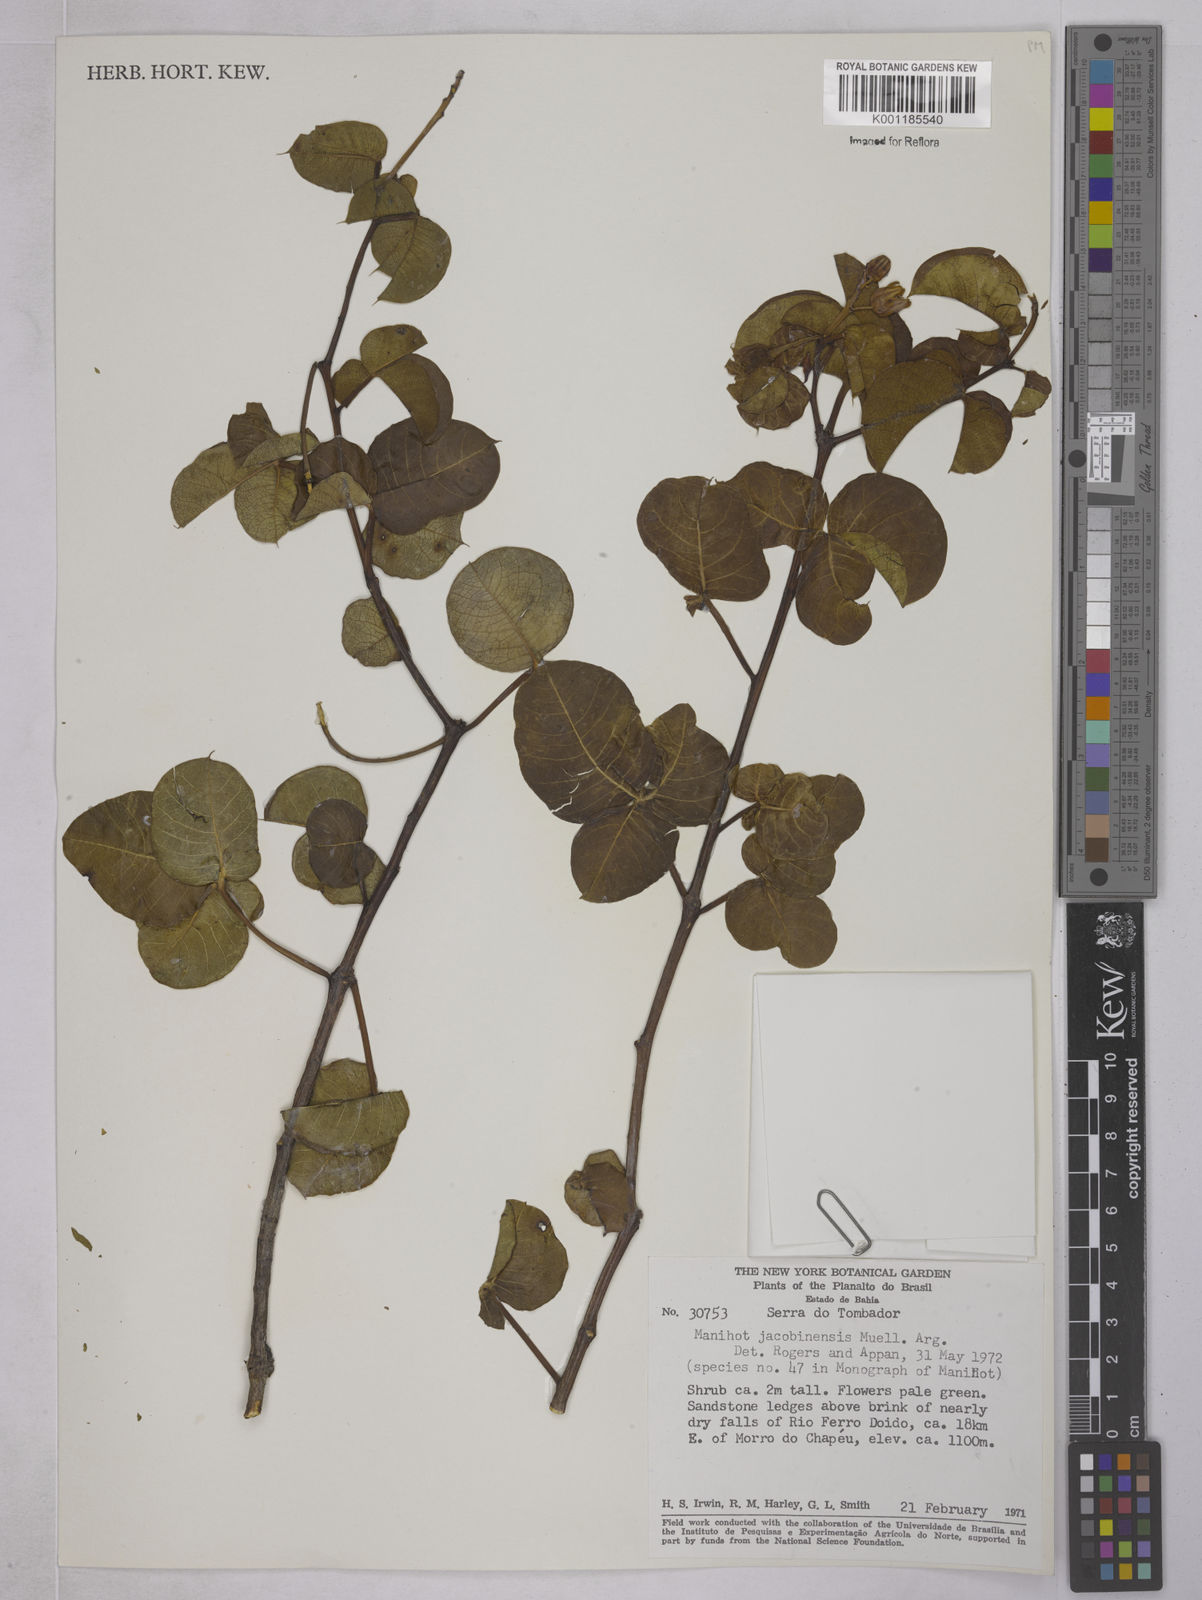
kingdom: Plantae
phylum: Tracheophyta
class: Magnoliopsida
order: Malpighiales
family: Euphorbiaceae
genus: Manihot
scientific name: Manihot
